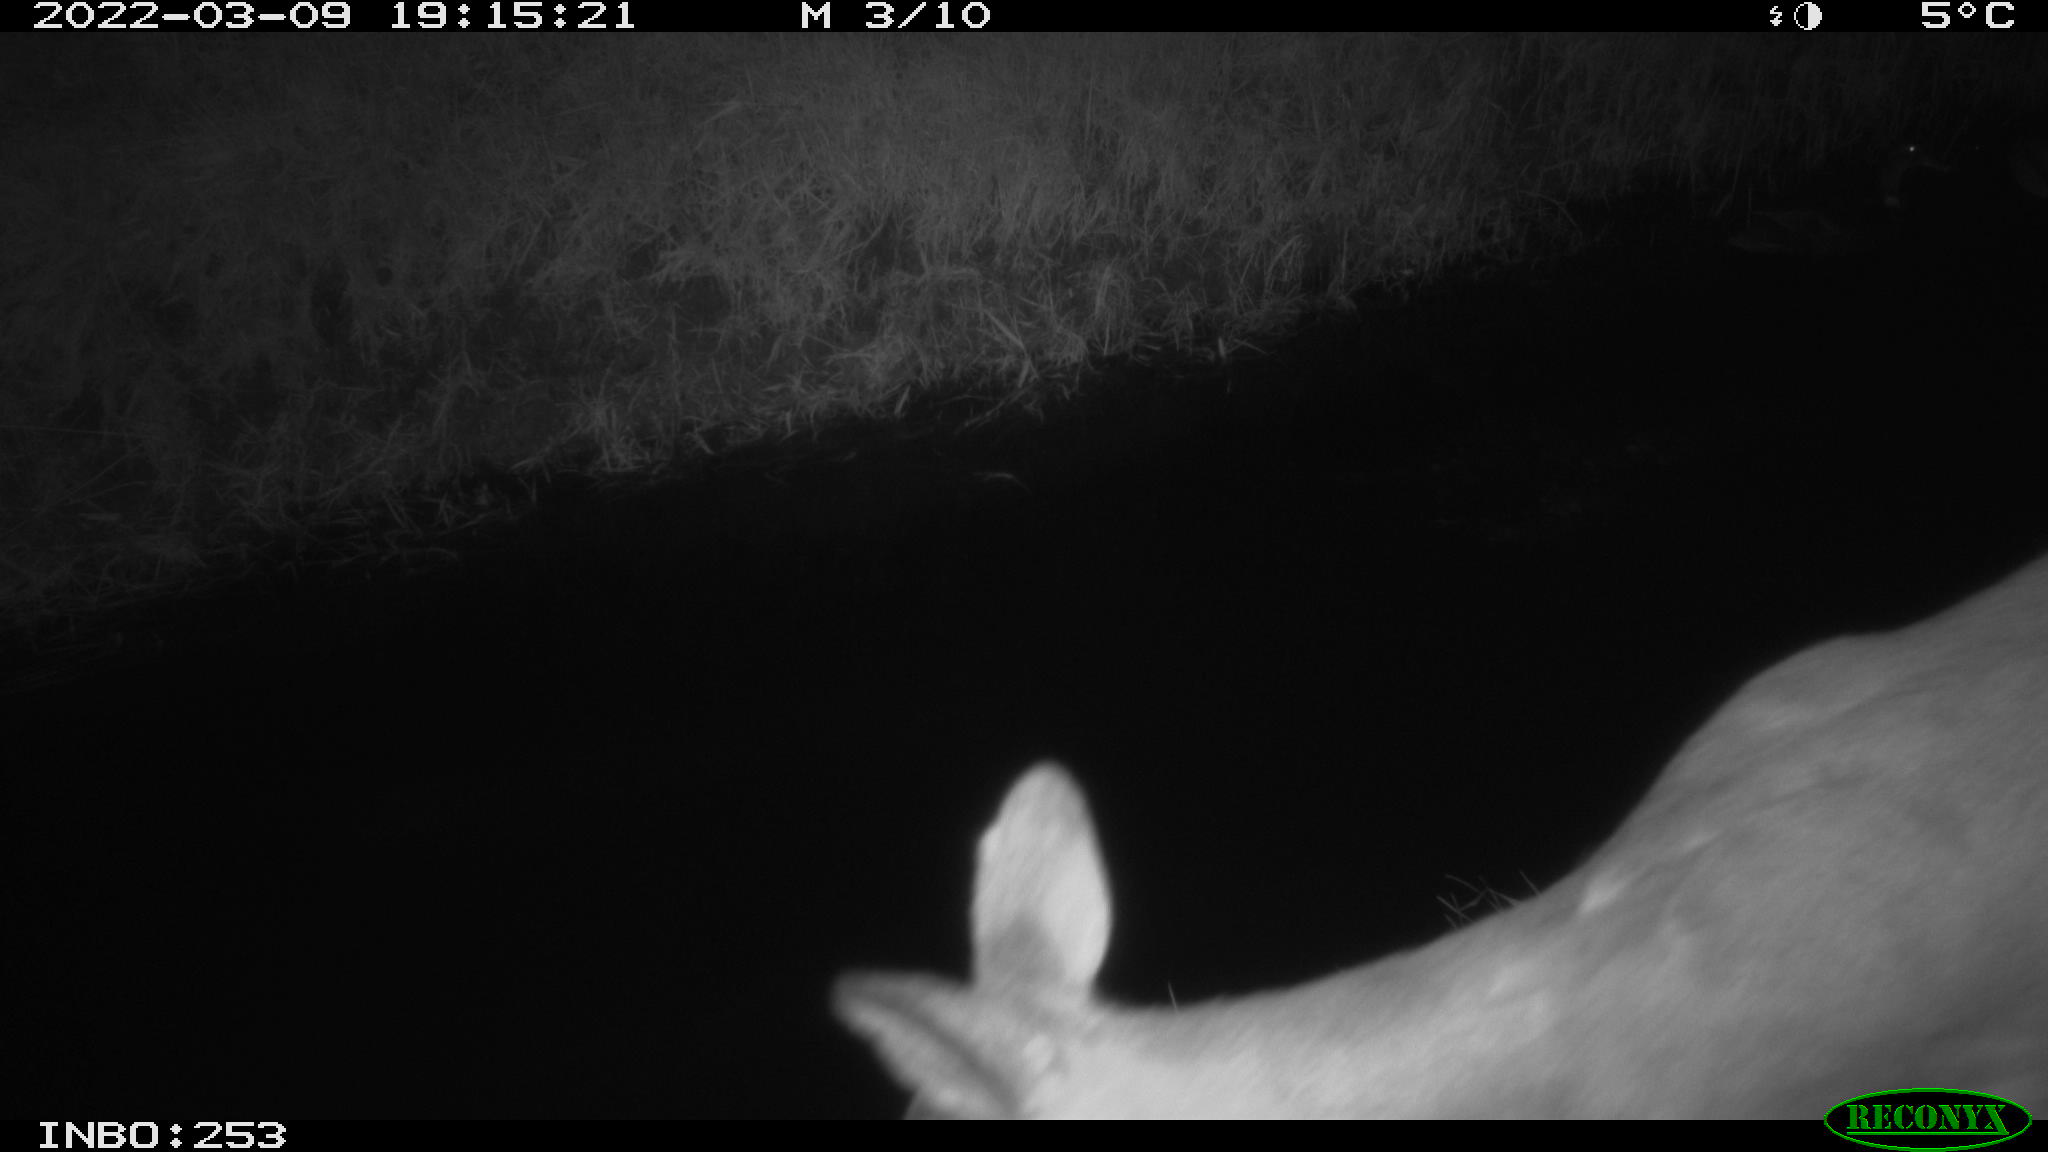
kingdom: Animalia
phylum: Chordata
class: Aves
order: Anseriformes
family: Anatidae
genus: Anas
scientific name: Anas platyrhynchos
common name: Mallard
